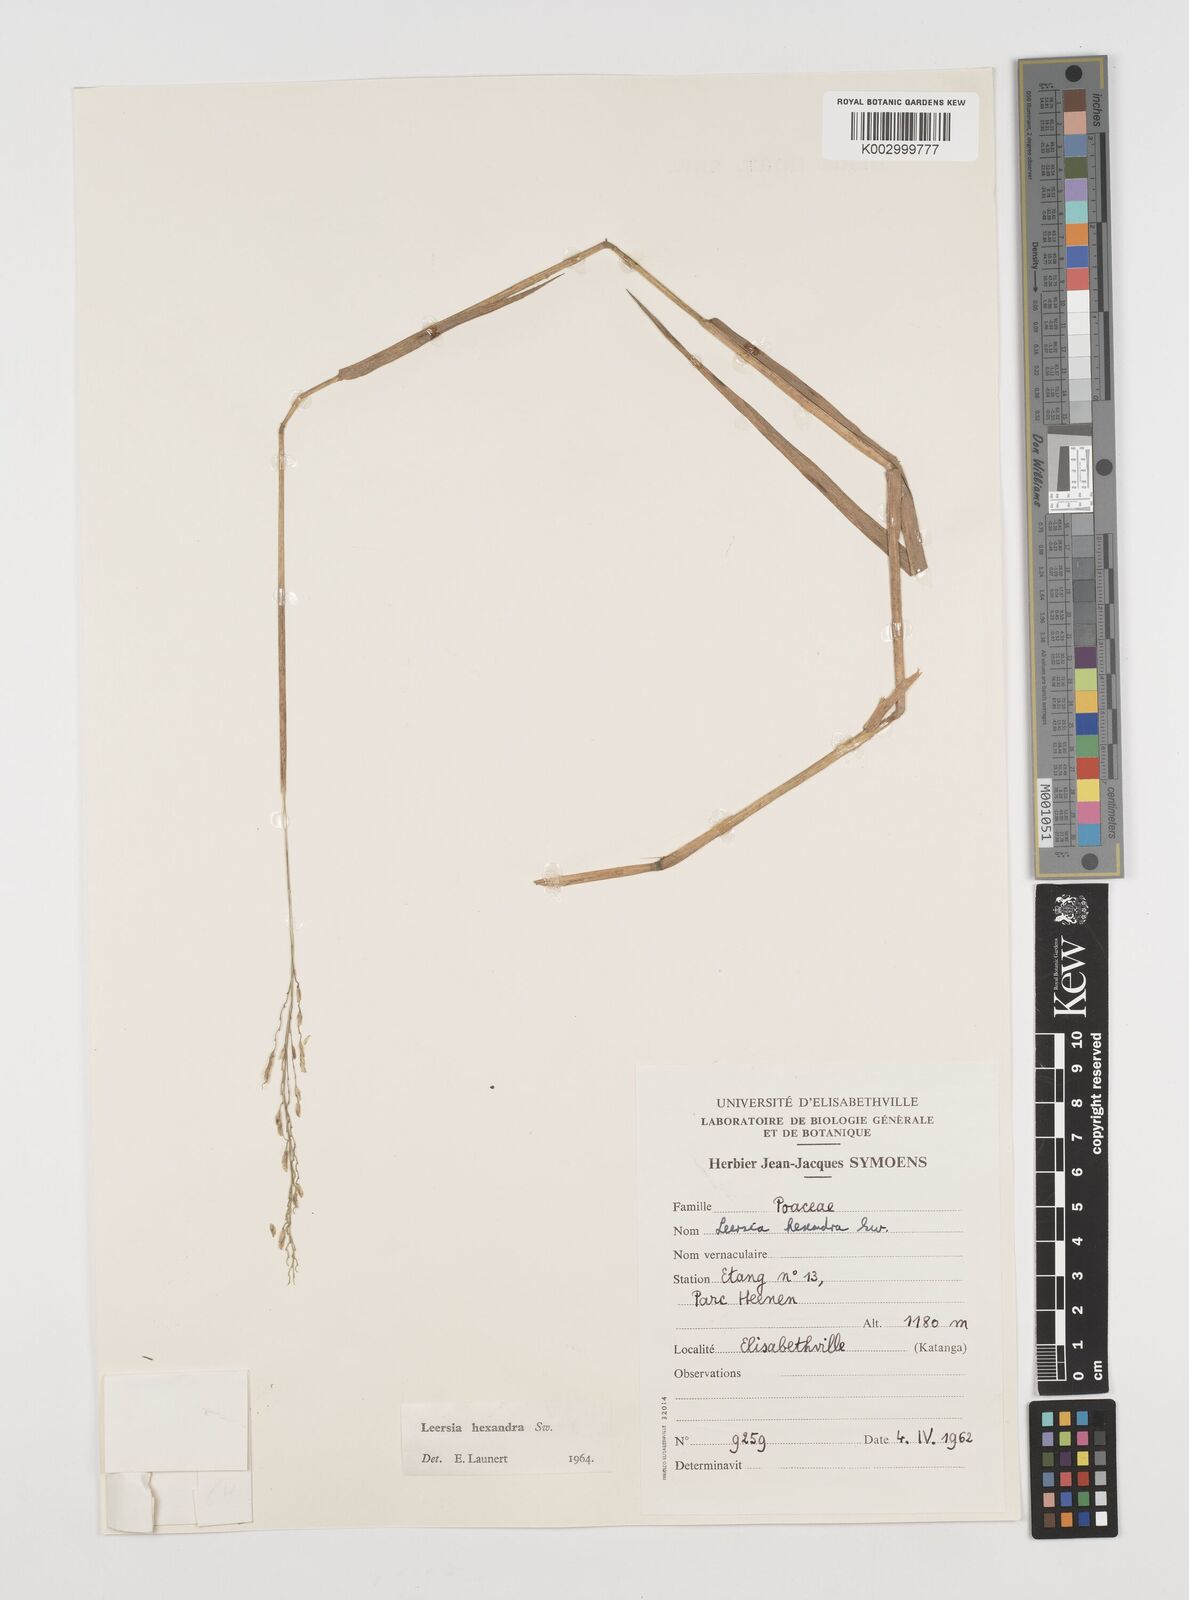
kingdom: Plantae
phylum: Tracheophyta
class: Liliopsida
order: Poales
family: Poaceae
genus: Leersia
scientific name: Leersia hexandra
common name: Southern cut grass
